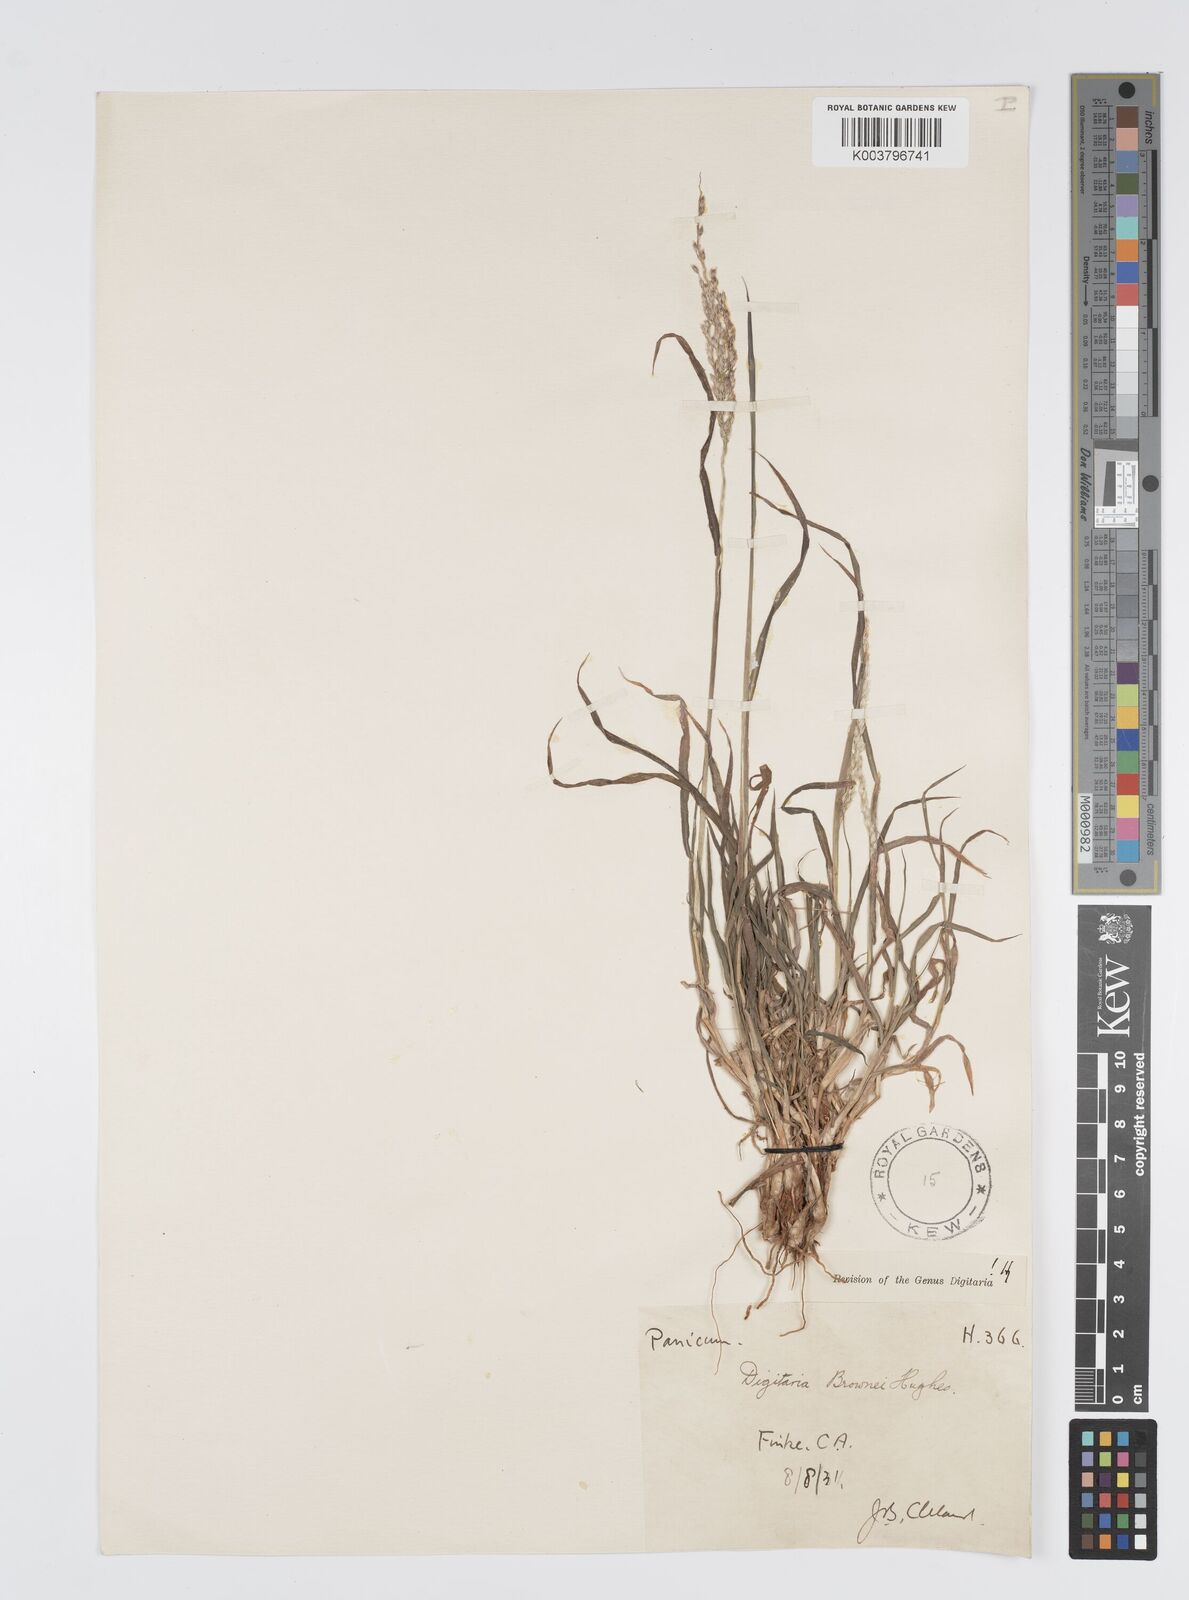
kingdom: Plantae
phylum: Tracheophyta
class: Liliopsida
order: Poales
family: Poaceae
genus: Digitaria
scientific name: Digitaria brownii
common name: Cotton grass
